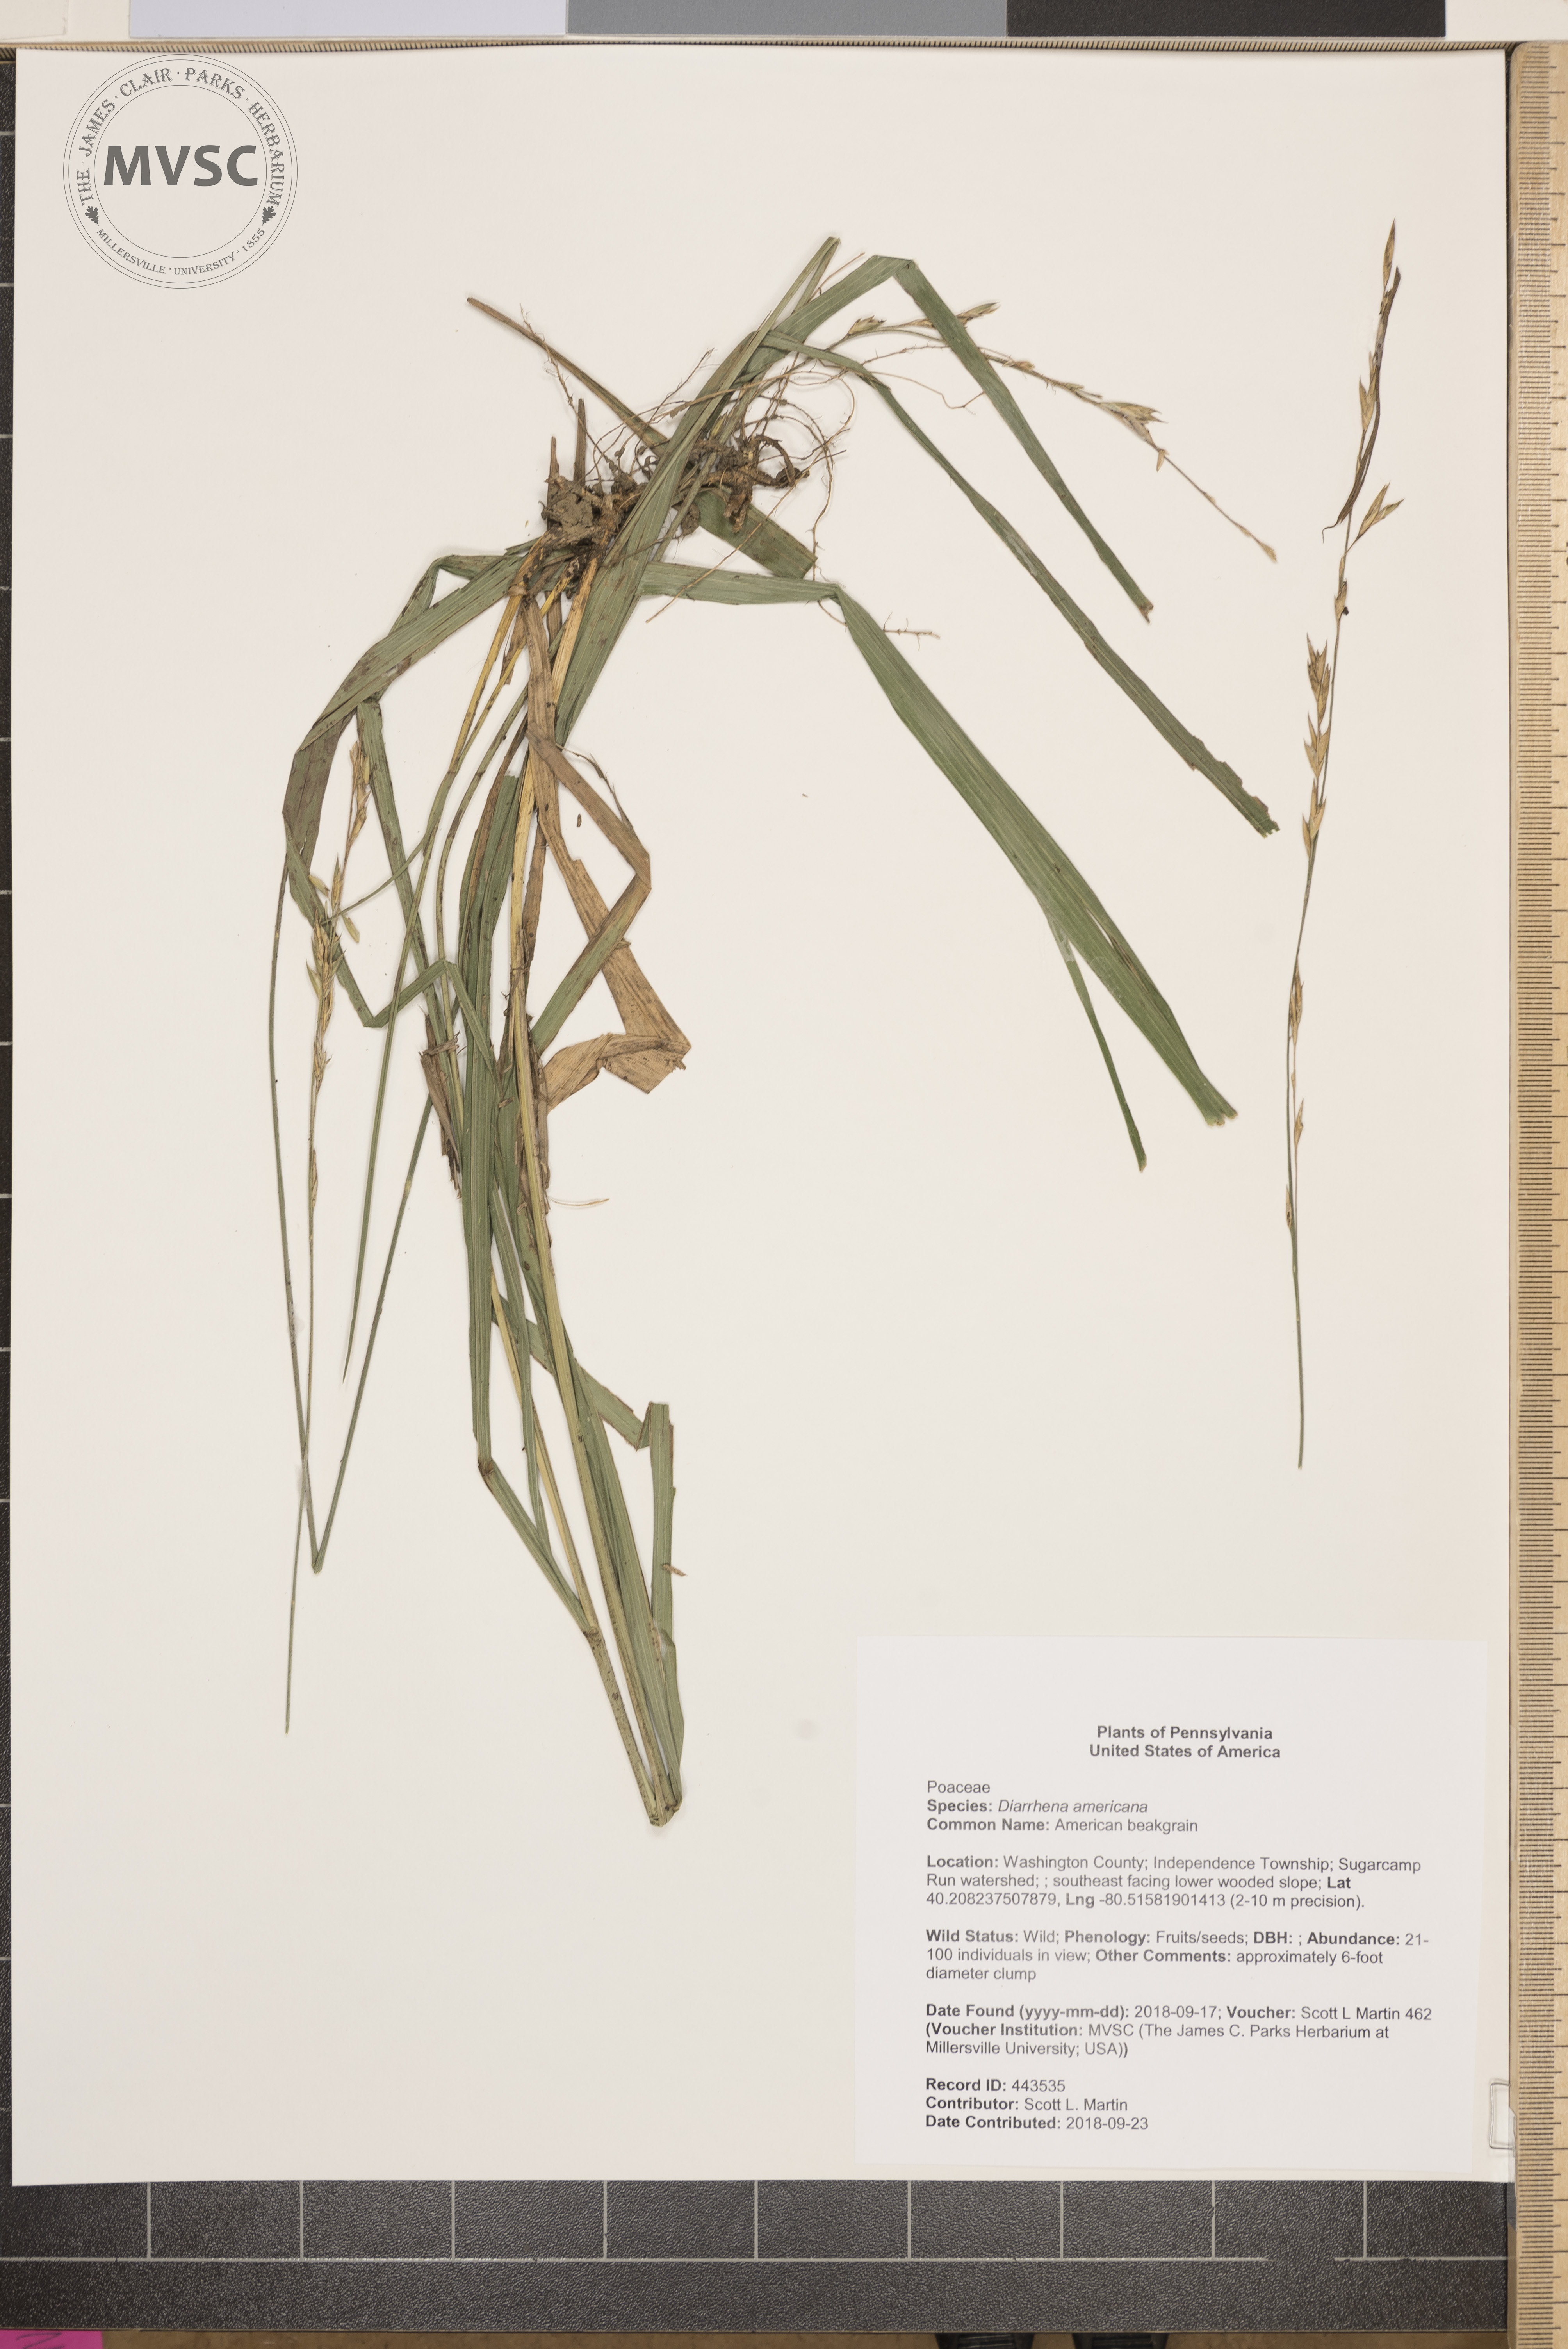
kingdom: Plantae
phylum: Tracheophyta
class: Liliopsida
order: Poales
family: Poaceae
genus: Diarrhena
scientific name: Diarrhena americana
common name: American beakgrain
